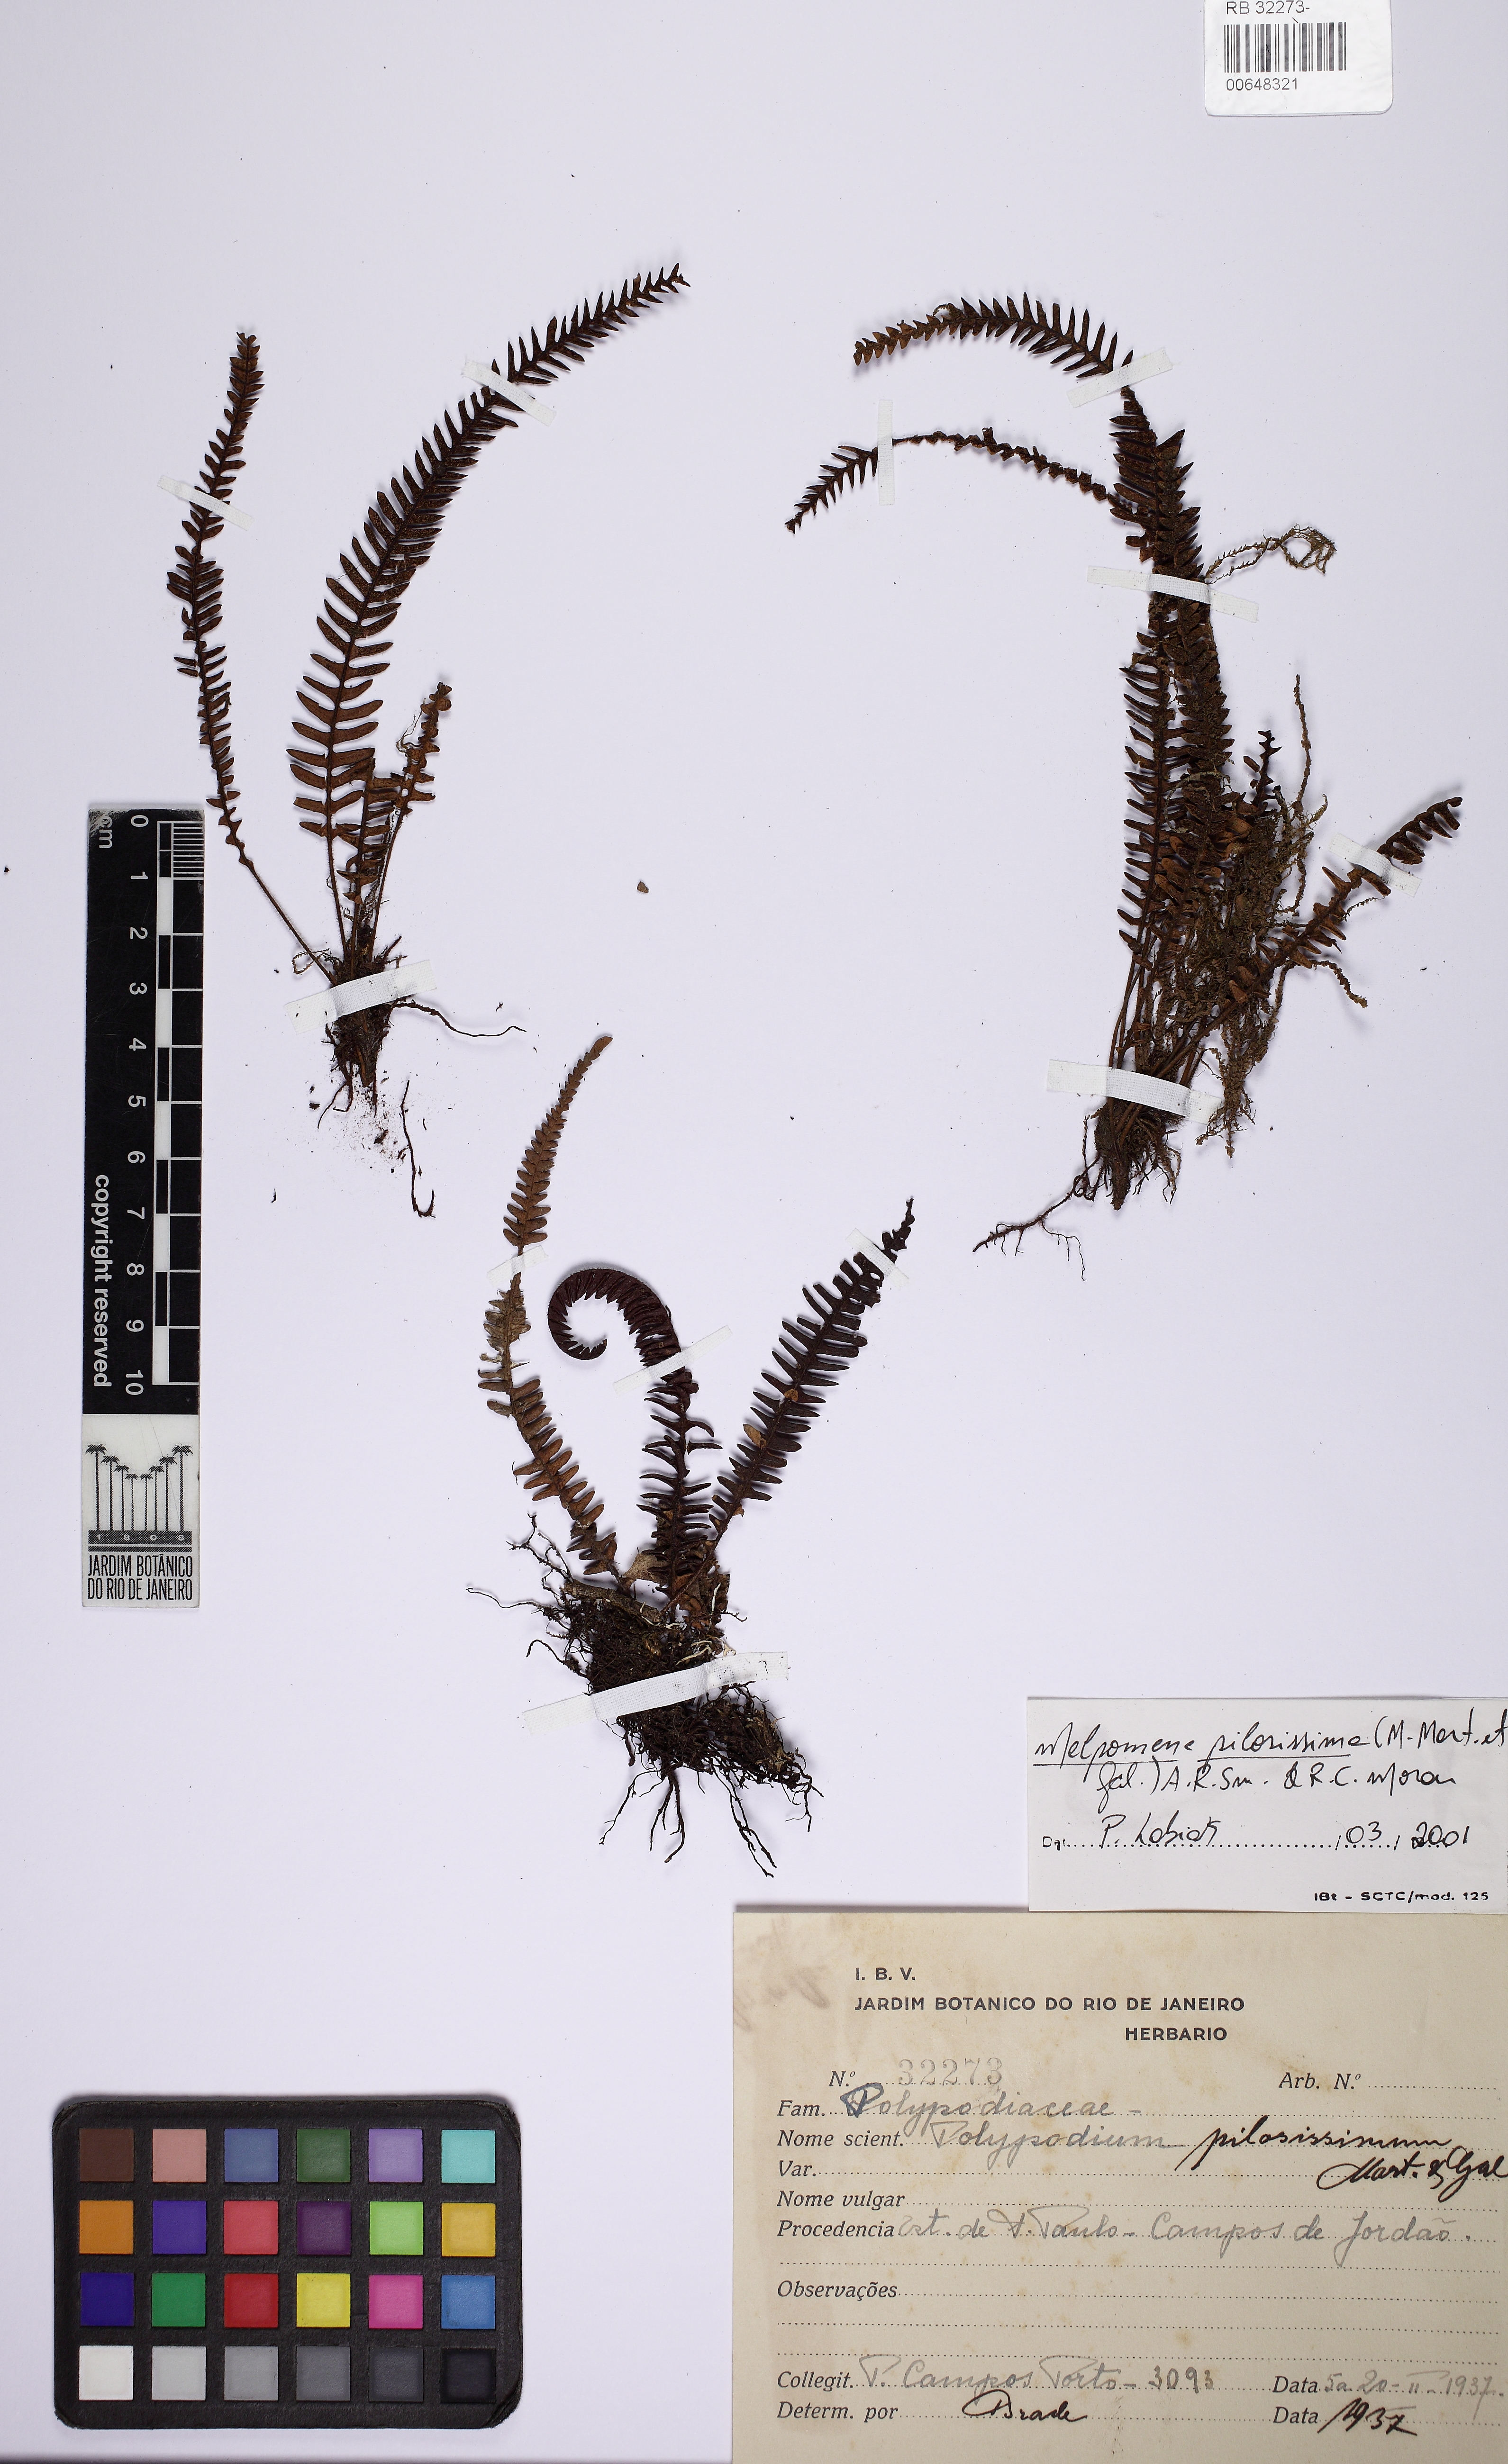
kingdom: Plantae
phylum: Tracheophyta
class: Polypodiopsida
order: Polypodiales
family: Polypodiaceae
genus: Melpomene
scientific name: Melpomene pilosissima
